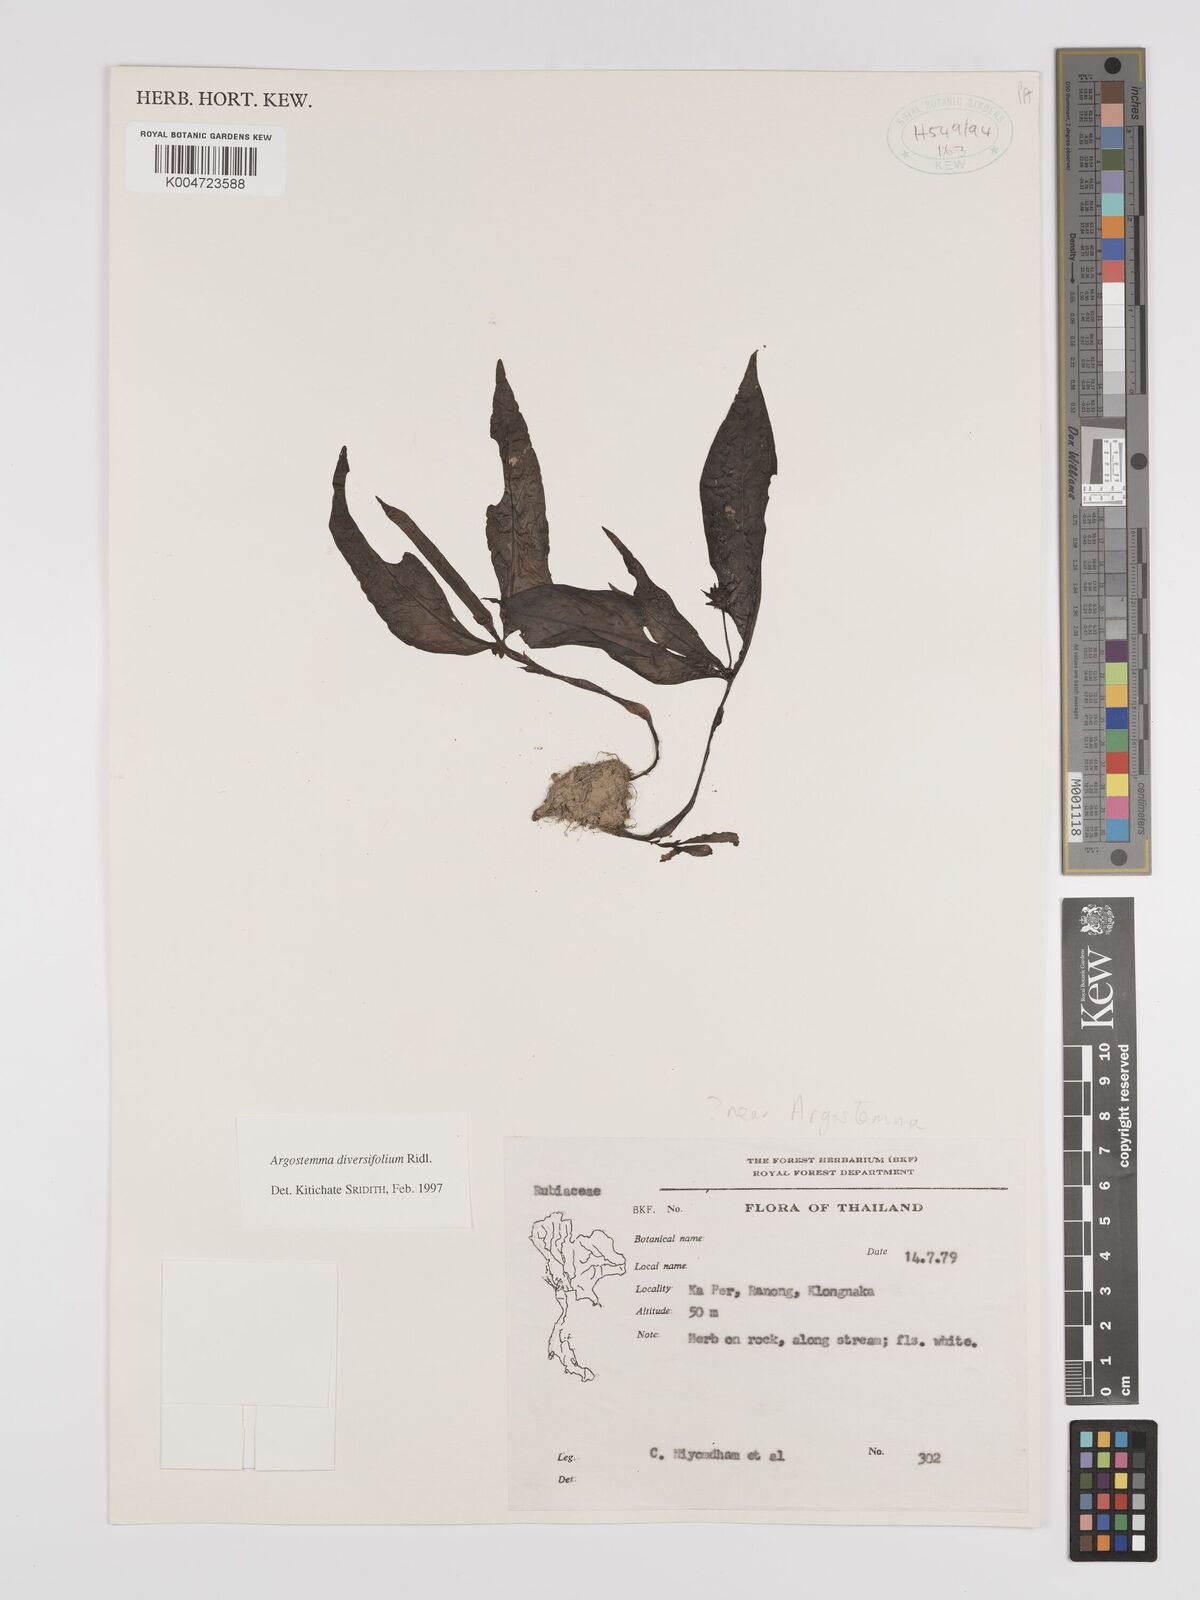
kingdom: Plantae
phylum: Tracheophyta
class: Magnoliopsida
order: Gentianales
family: Rubiaceae
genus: Argostemma
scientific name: Argostemma diversifolium
